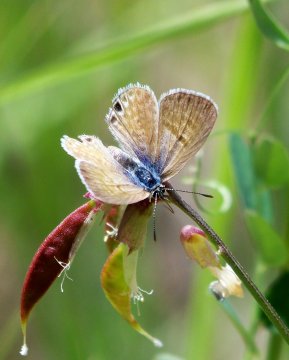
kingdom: Animalia
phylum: Arthropoda
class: Insecta
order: Lepidoptera
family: Lycaenidae
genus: Leptotes
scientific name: Leptotes marina
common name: Marine Blue
